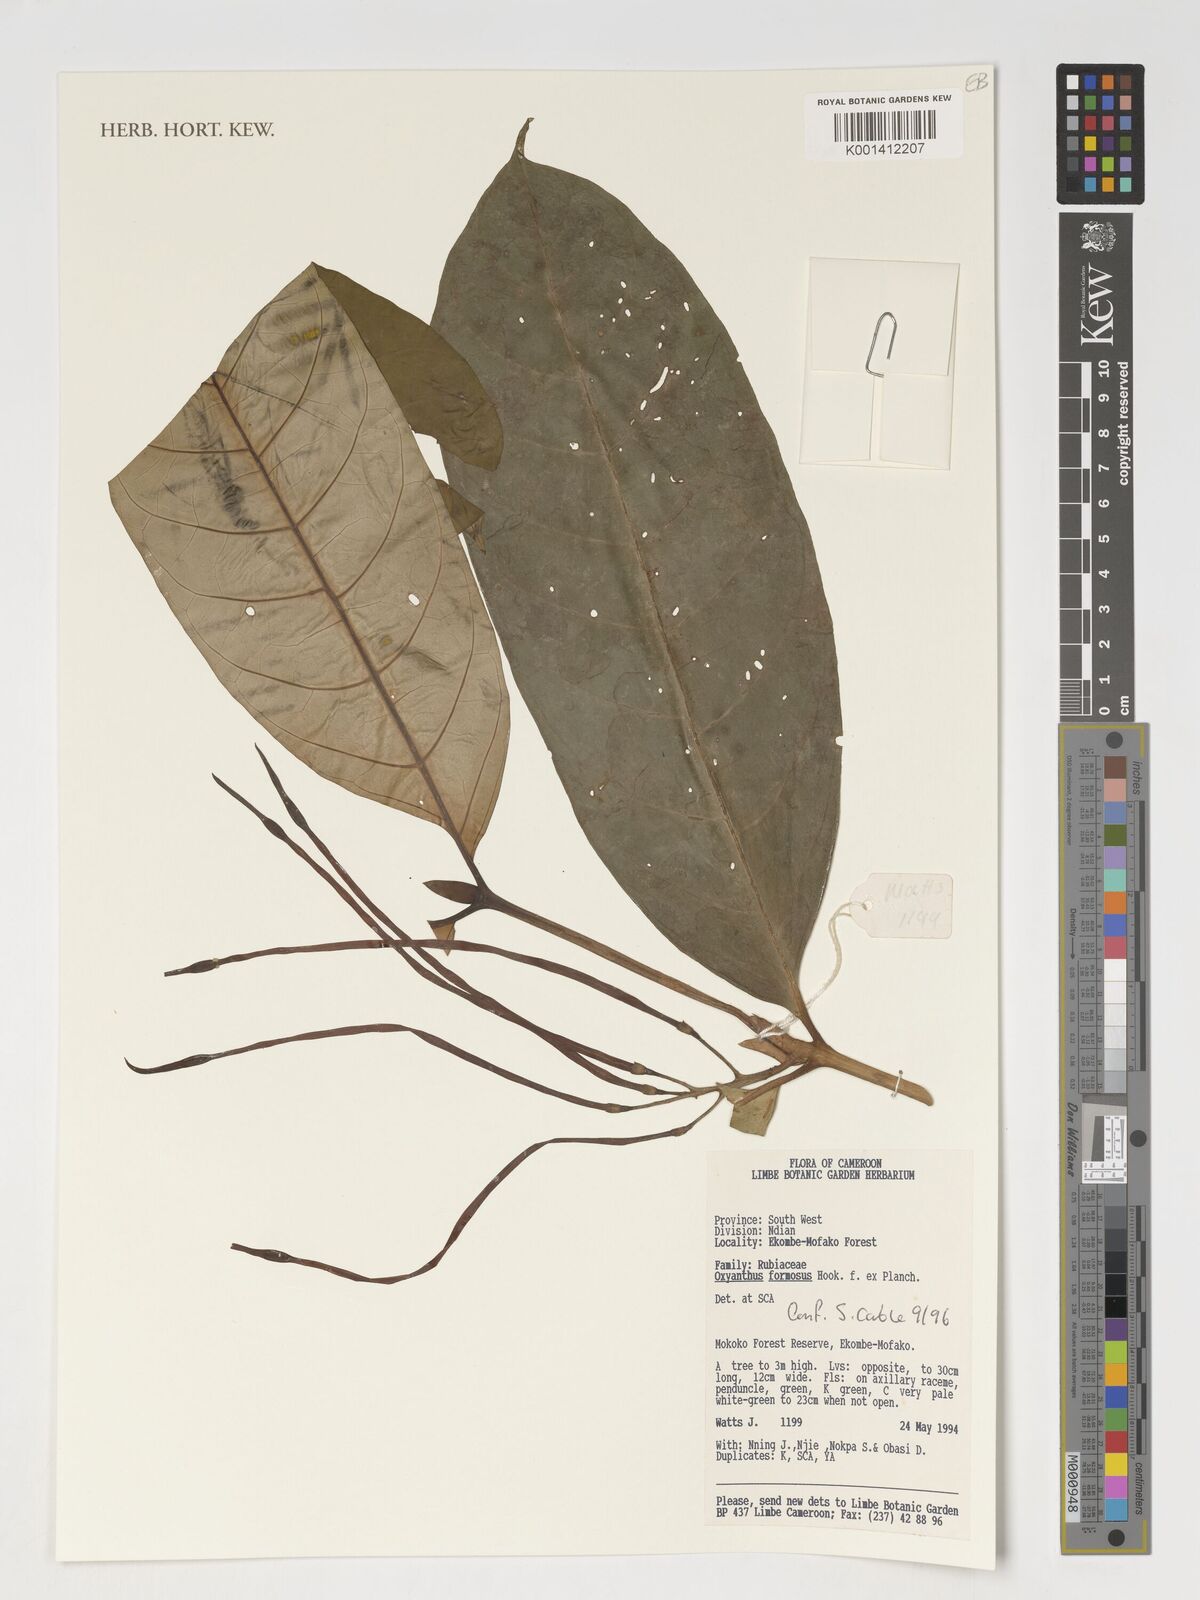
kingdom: Plantae
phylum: Tracheophyta
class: Magnoliopsida
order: Gentianales
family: Rubiaceae
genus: Oxyanthus
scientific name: Oxyanthus formosus
